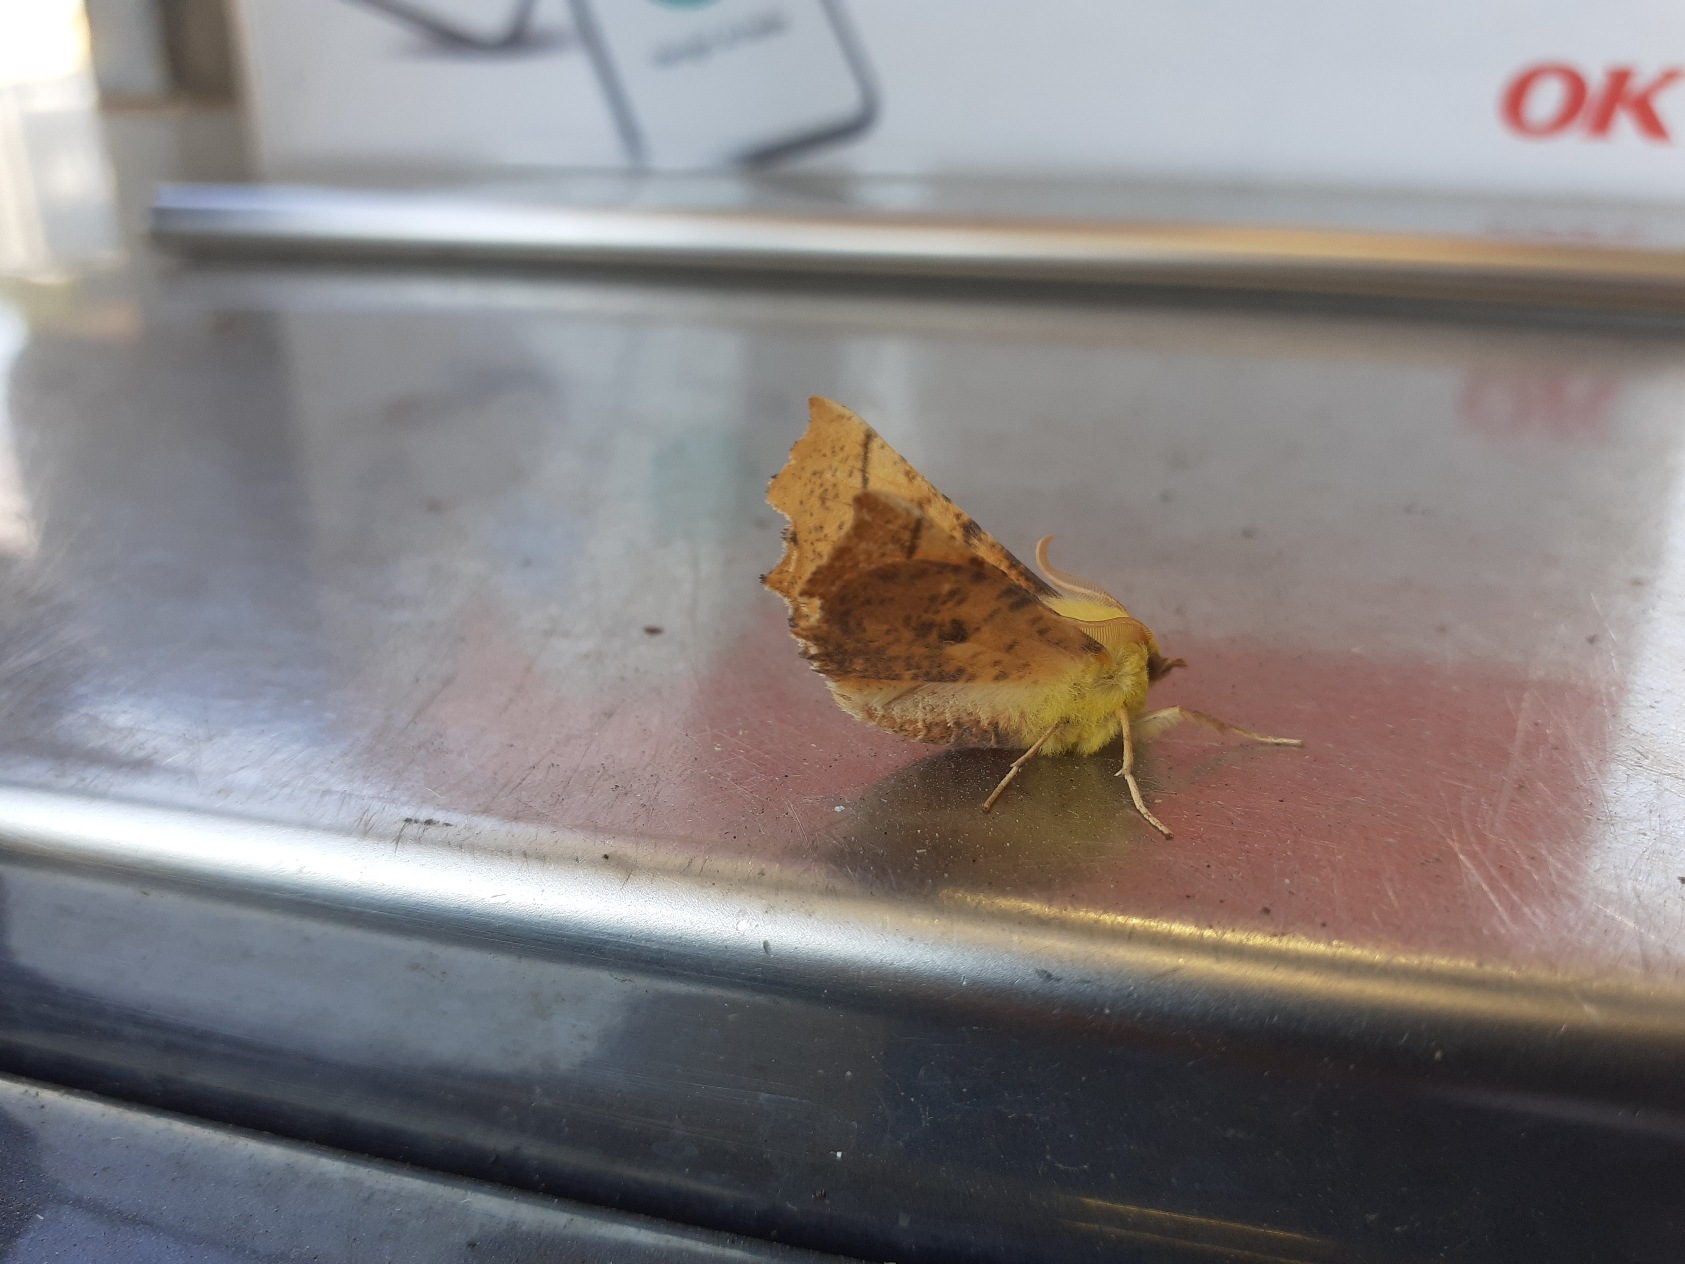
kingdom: Animalia
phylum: Arthropoda
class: Insecta
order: Lepidoptera
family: Geometridae
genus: Ennomos
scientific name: Ennomos alniaria
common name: Elle-tandmåler
